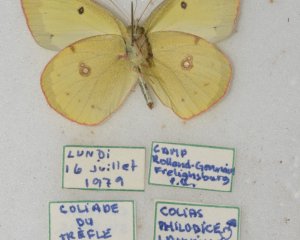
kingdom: Animalia
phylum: Arthropoda
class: Insecta
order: Lepidoptera
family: Pieridae
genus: Colias
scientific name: Colias philodice
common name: Clouded Sulphur
